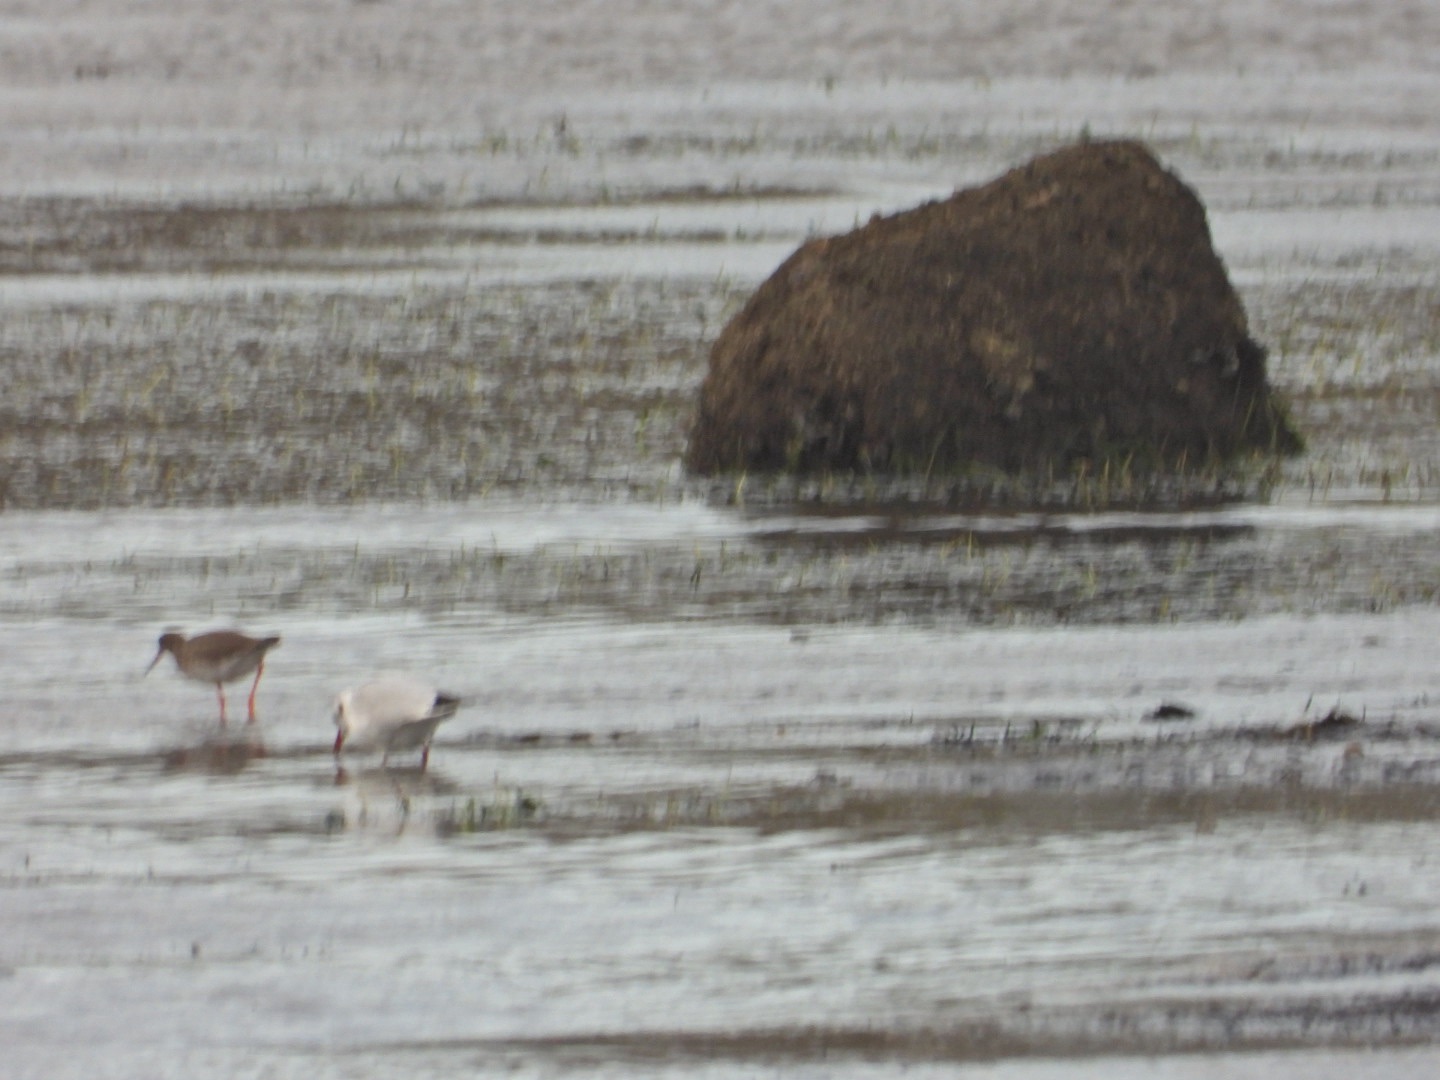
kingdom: Animalia
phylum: Chordata
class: Aves
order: Charadriiformes
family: Scolopacidae
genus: Tringa
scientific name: Tringa totanus
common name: Rødben
